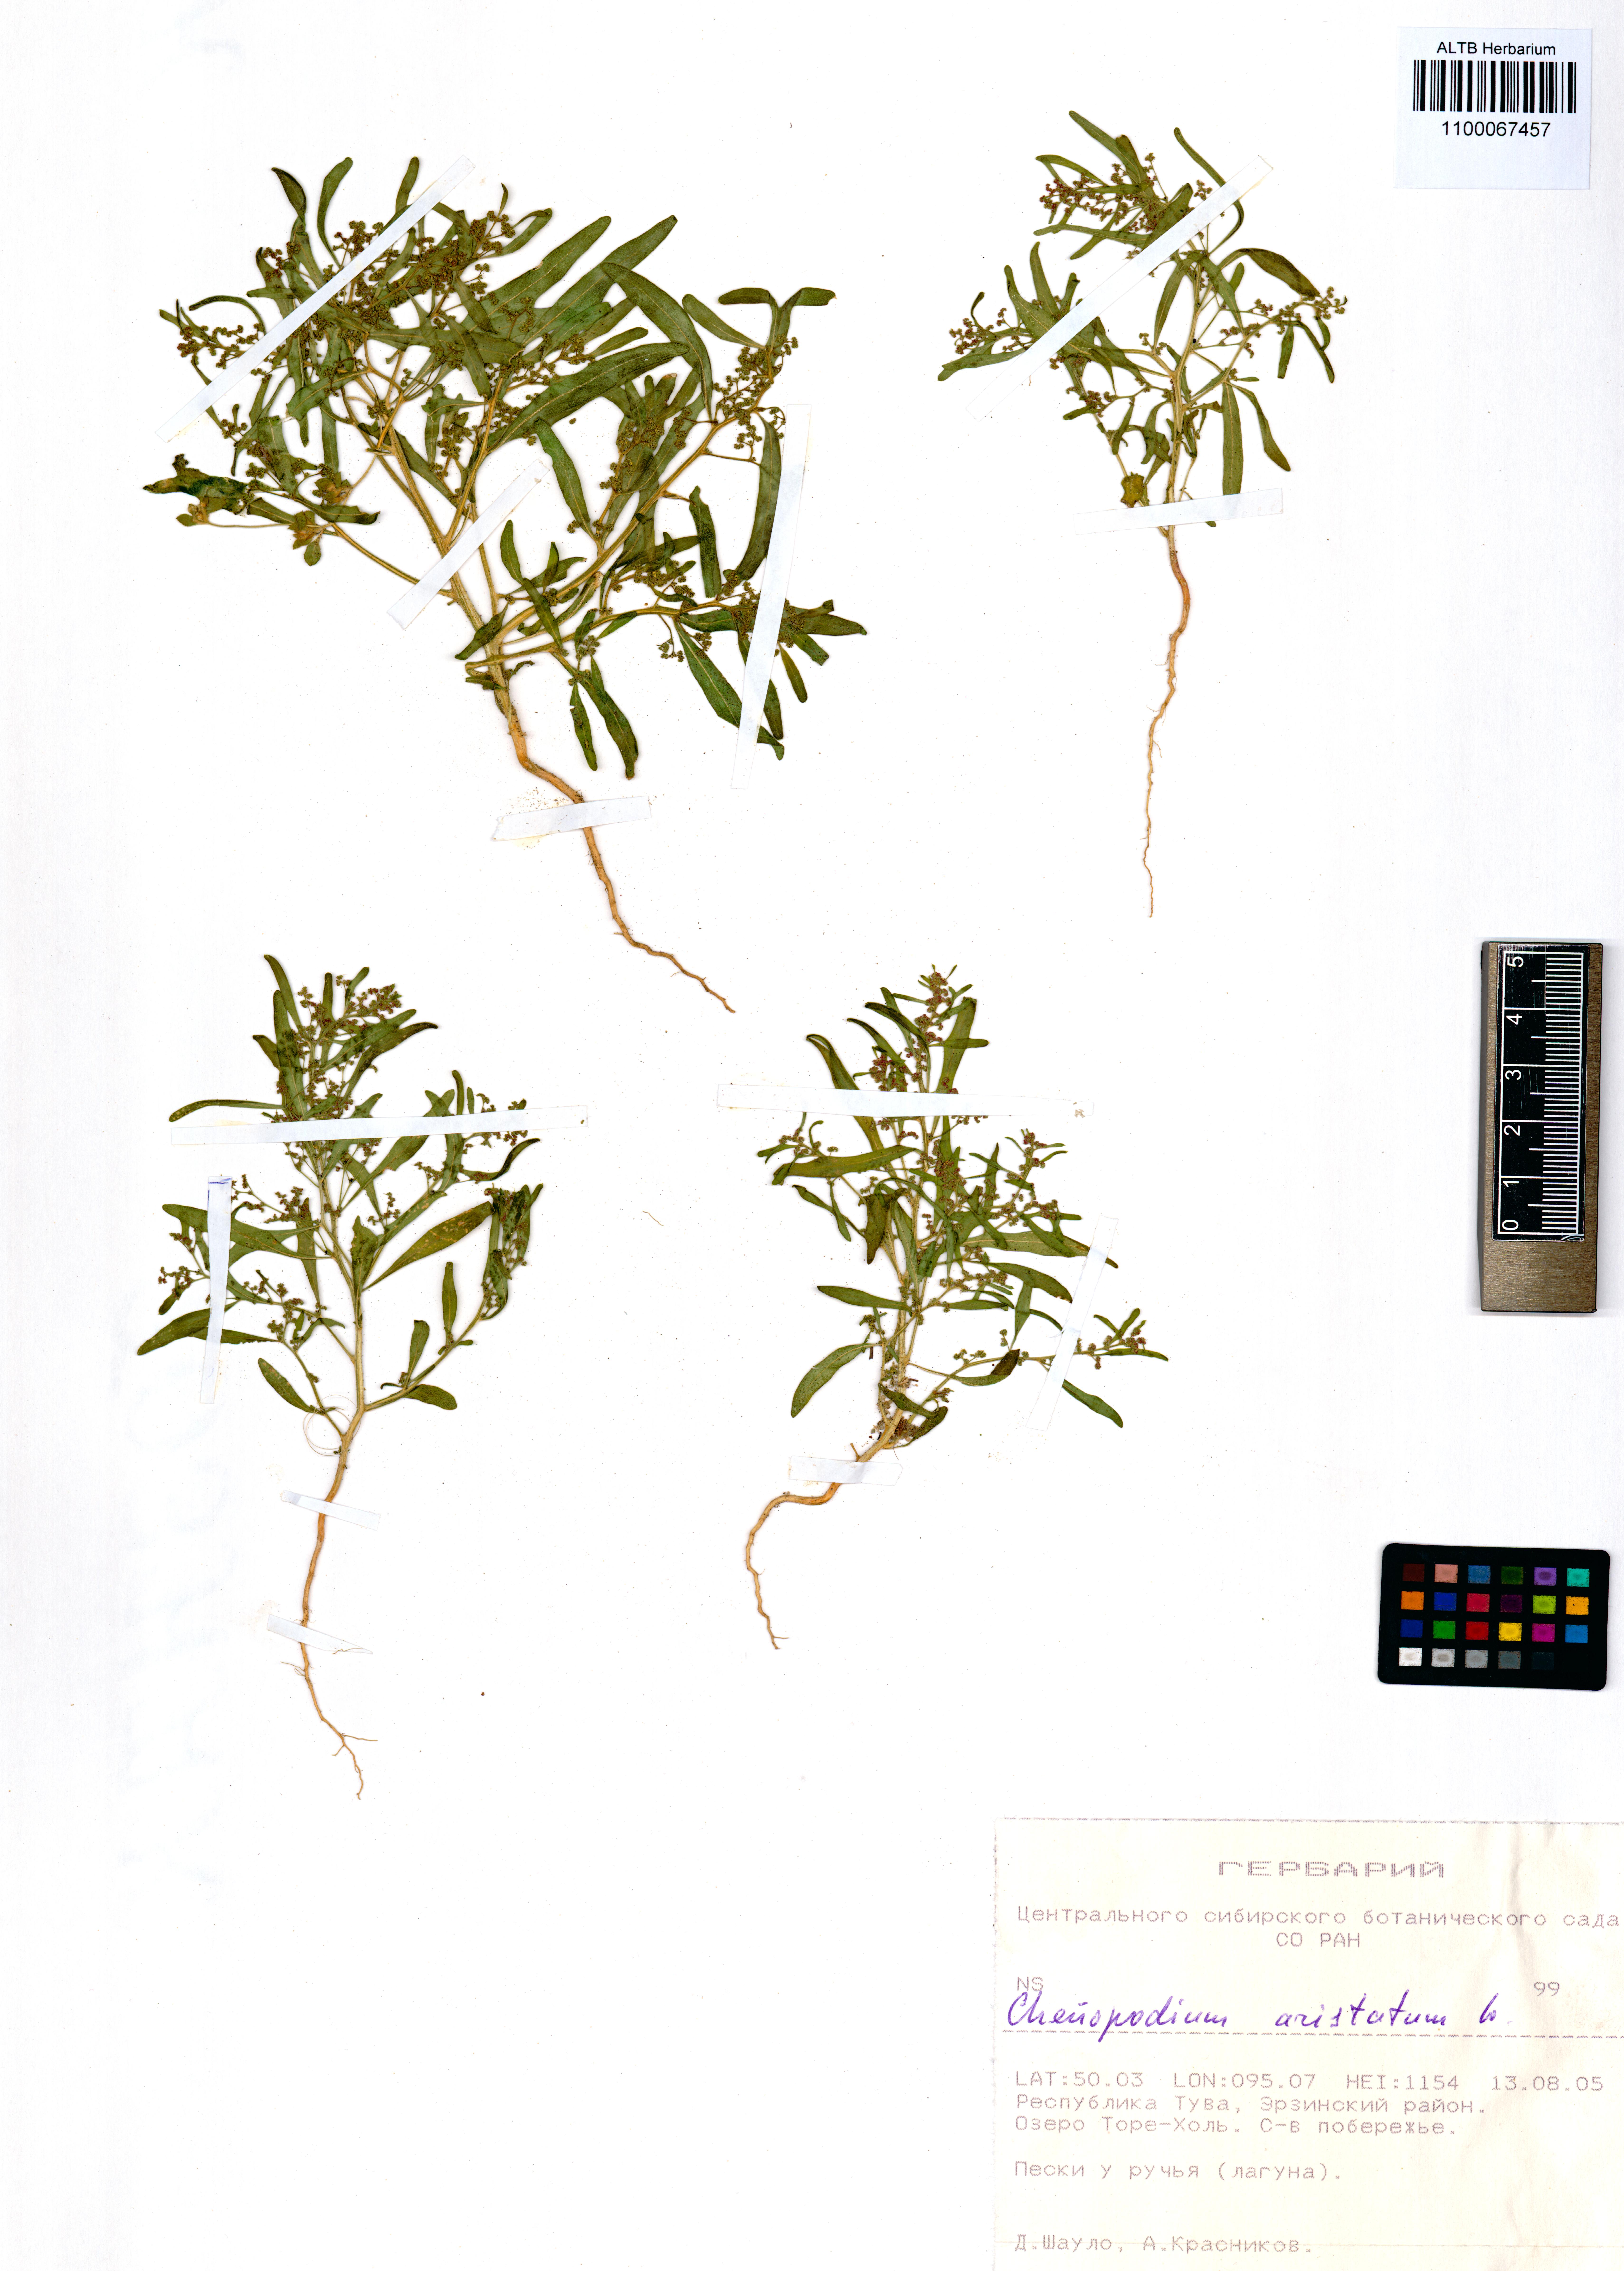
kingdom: Plantae
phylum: Tracheophyta
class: Magnoliopsida
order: Caryophyllales
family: Amaranthaceae
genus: Teloxys
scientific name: Teloxys aristata
